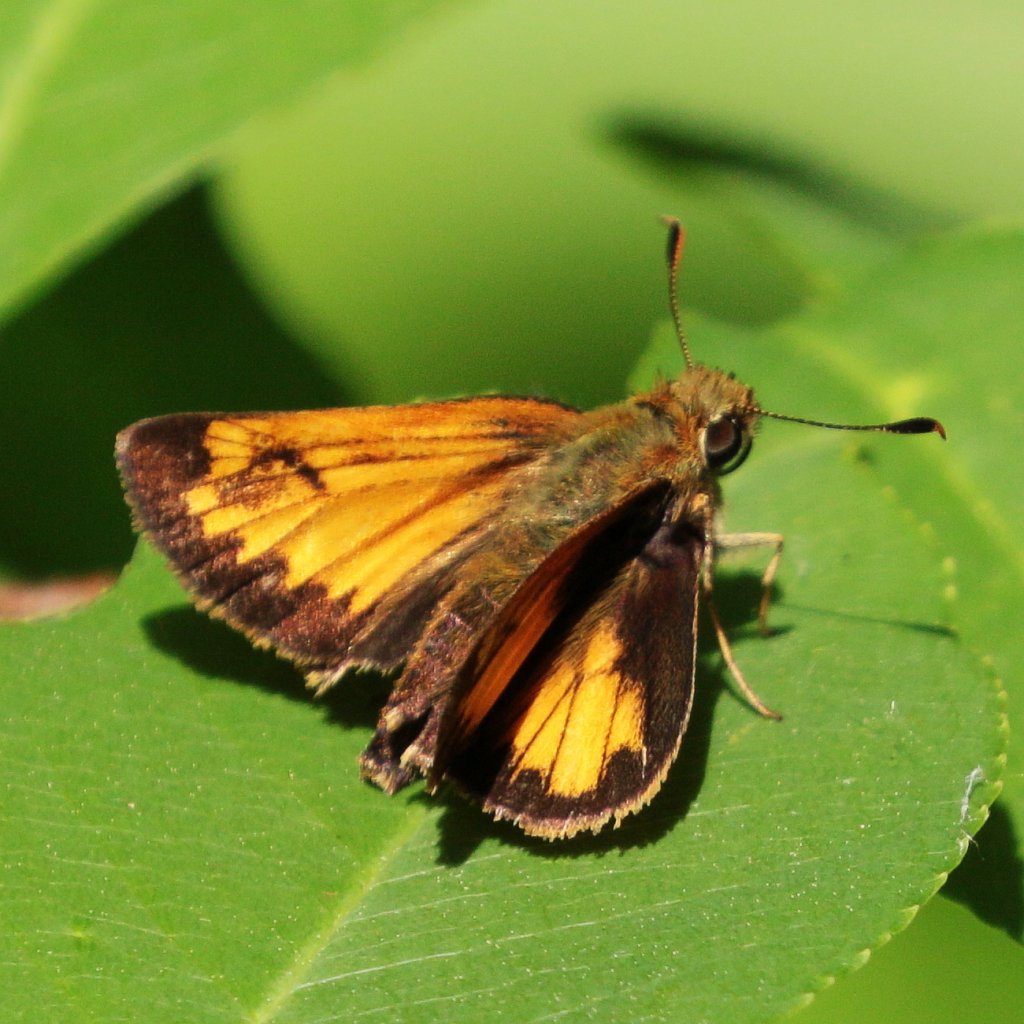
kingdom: Animalia
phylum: Arthropoda
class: Insecta
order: Lepidoptera
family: Hesperiidae
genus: Lon
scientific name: Lon hobomok
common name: Hobomok Skipper
